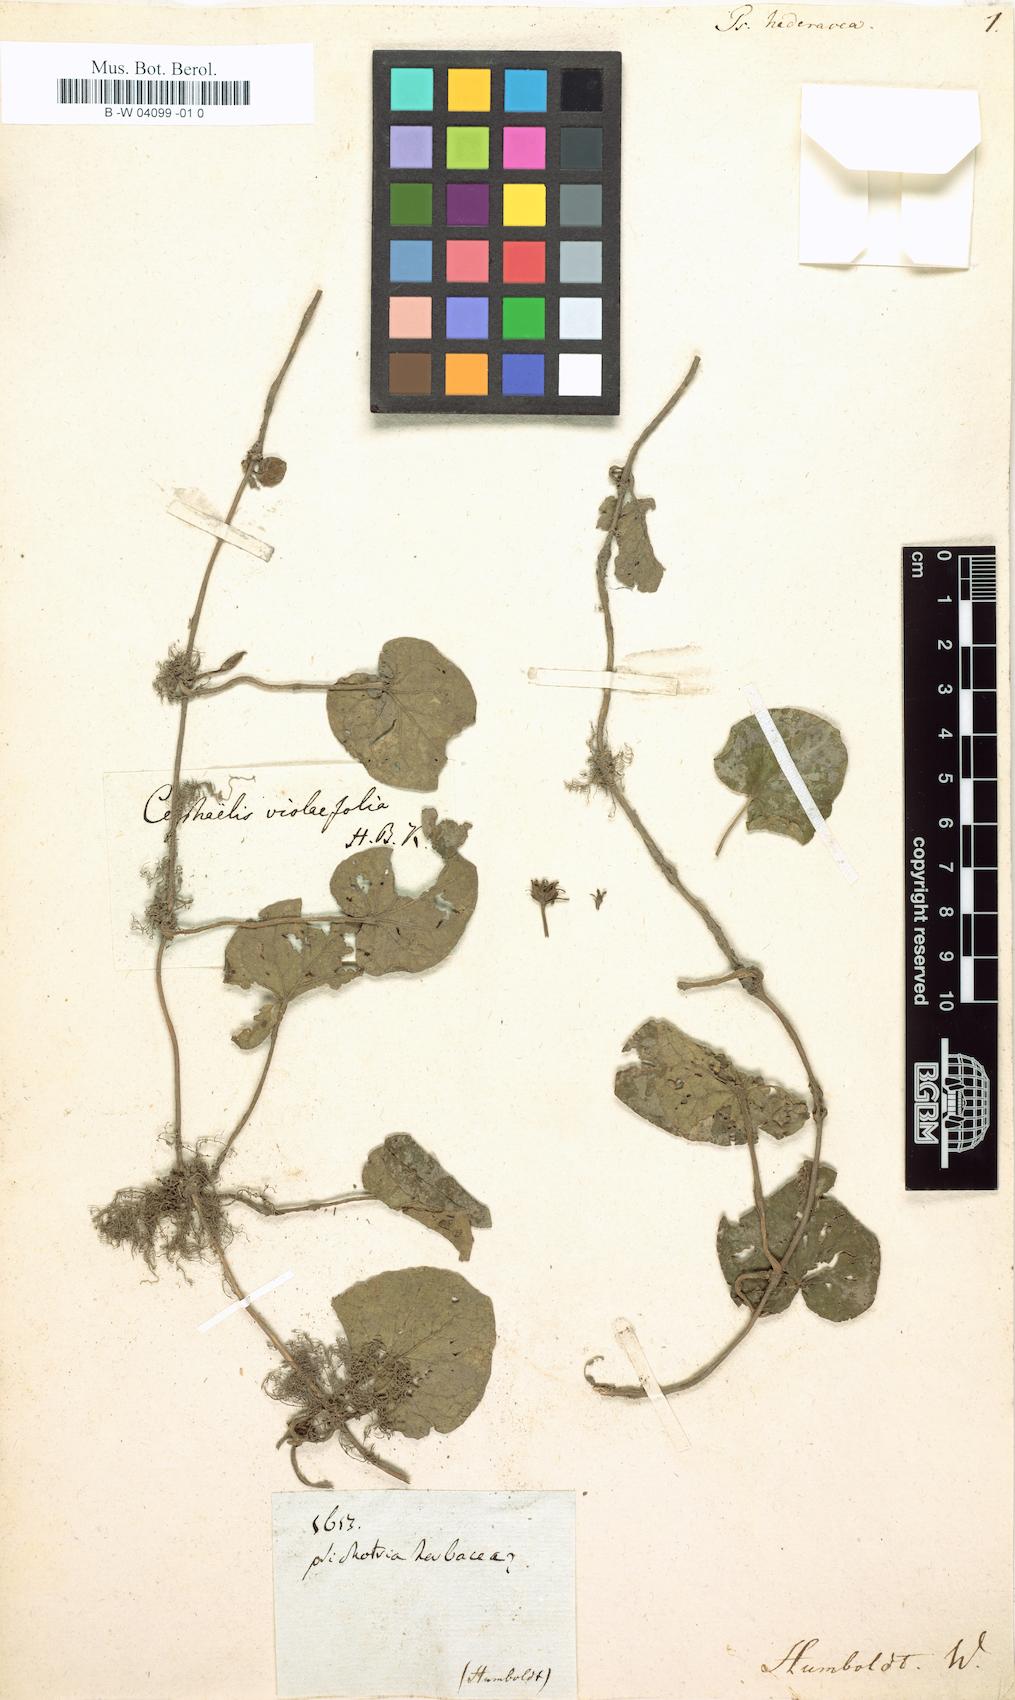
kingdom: Plantae
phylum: Tracheophyta
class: Magnoliopsida
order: Gentianales
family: Rubiaceae
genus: Geophila
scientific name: Geophila macropoda
